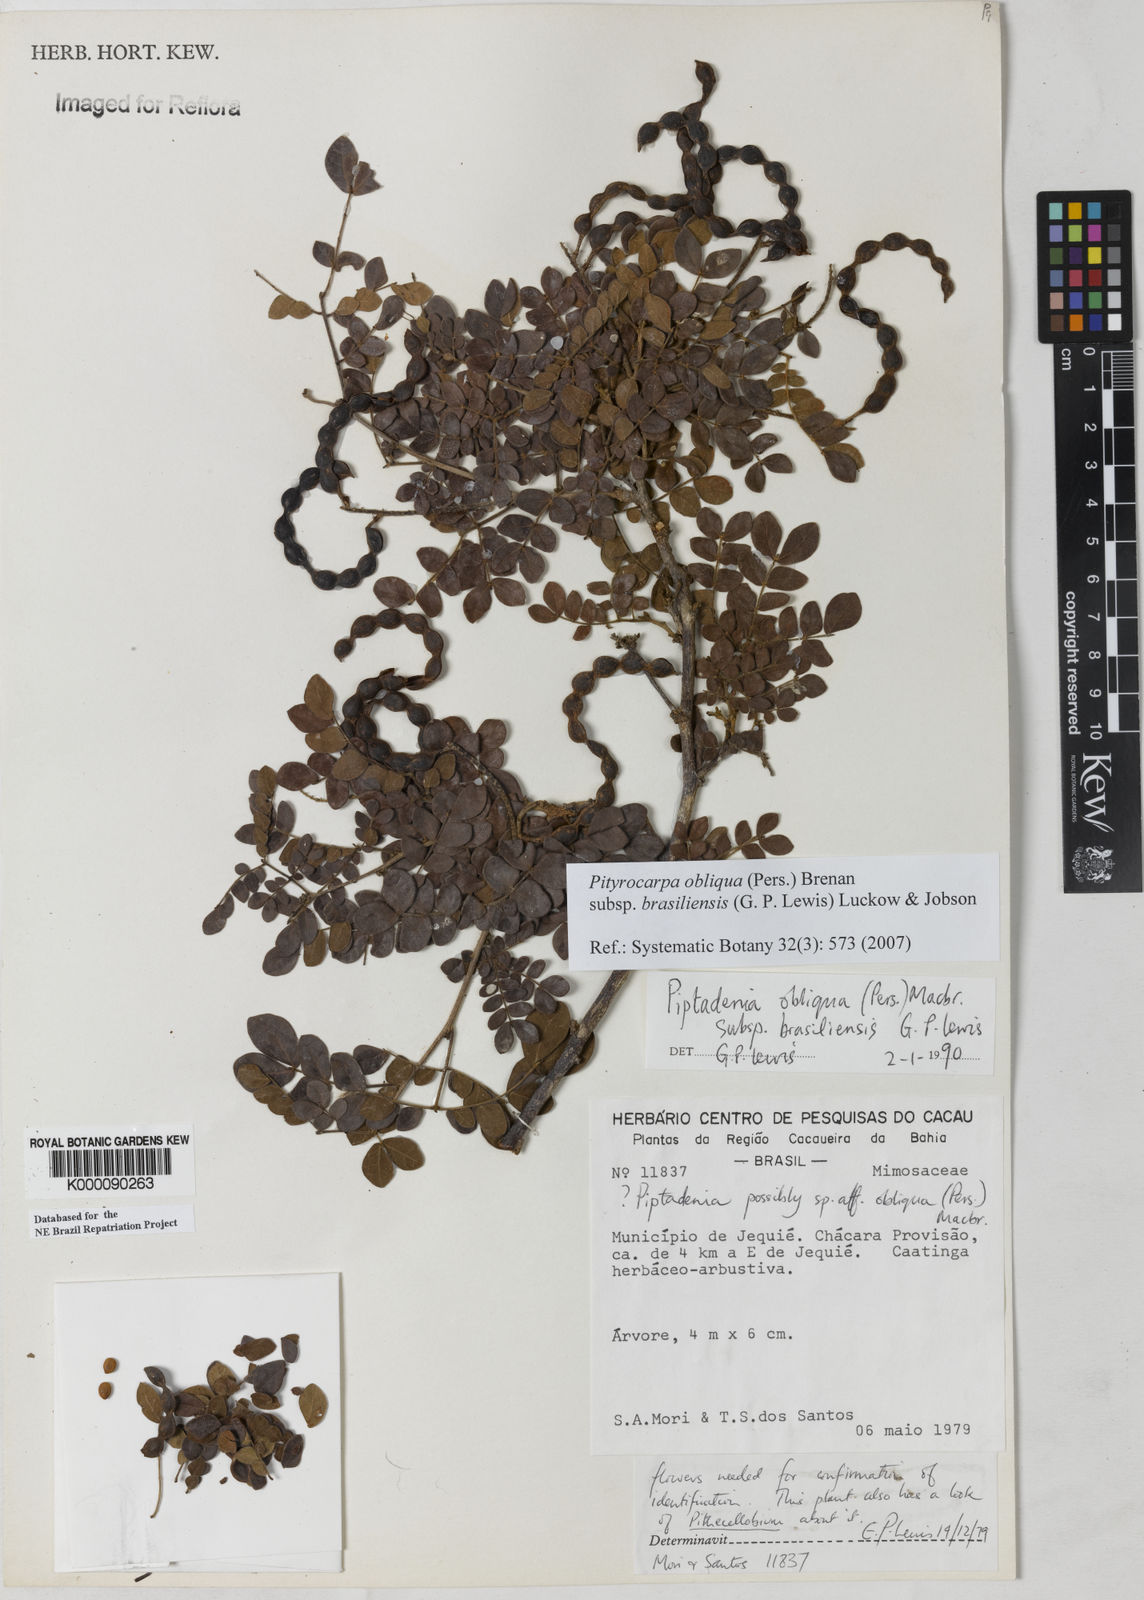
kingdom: Plantae
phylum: Tracheophyta
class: Magnoliopsida
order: Fabales
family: Fabaceae
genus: Pityrocarpa
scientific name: Pityrocarpa obliqua
